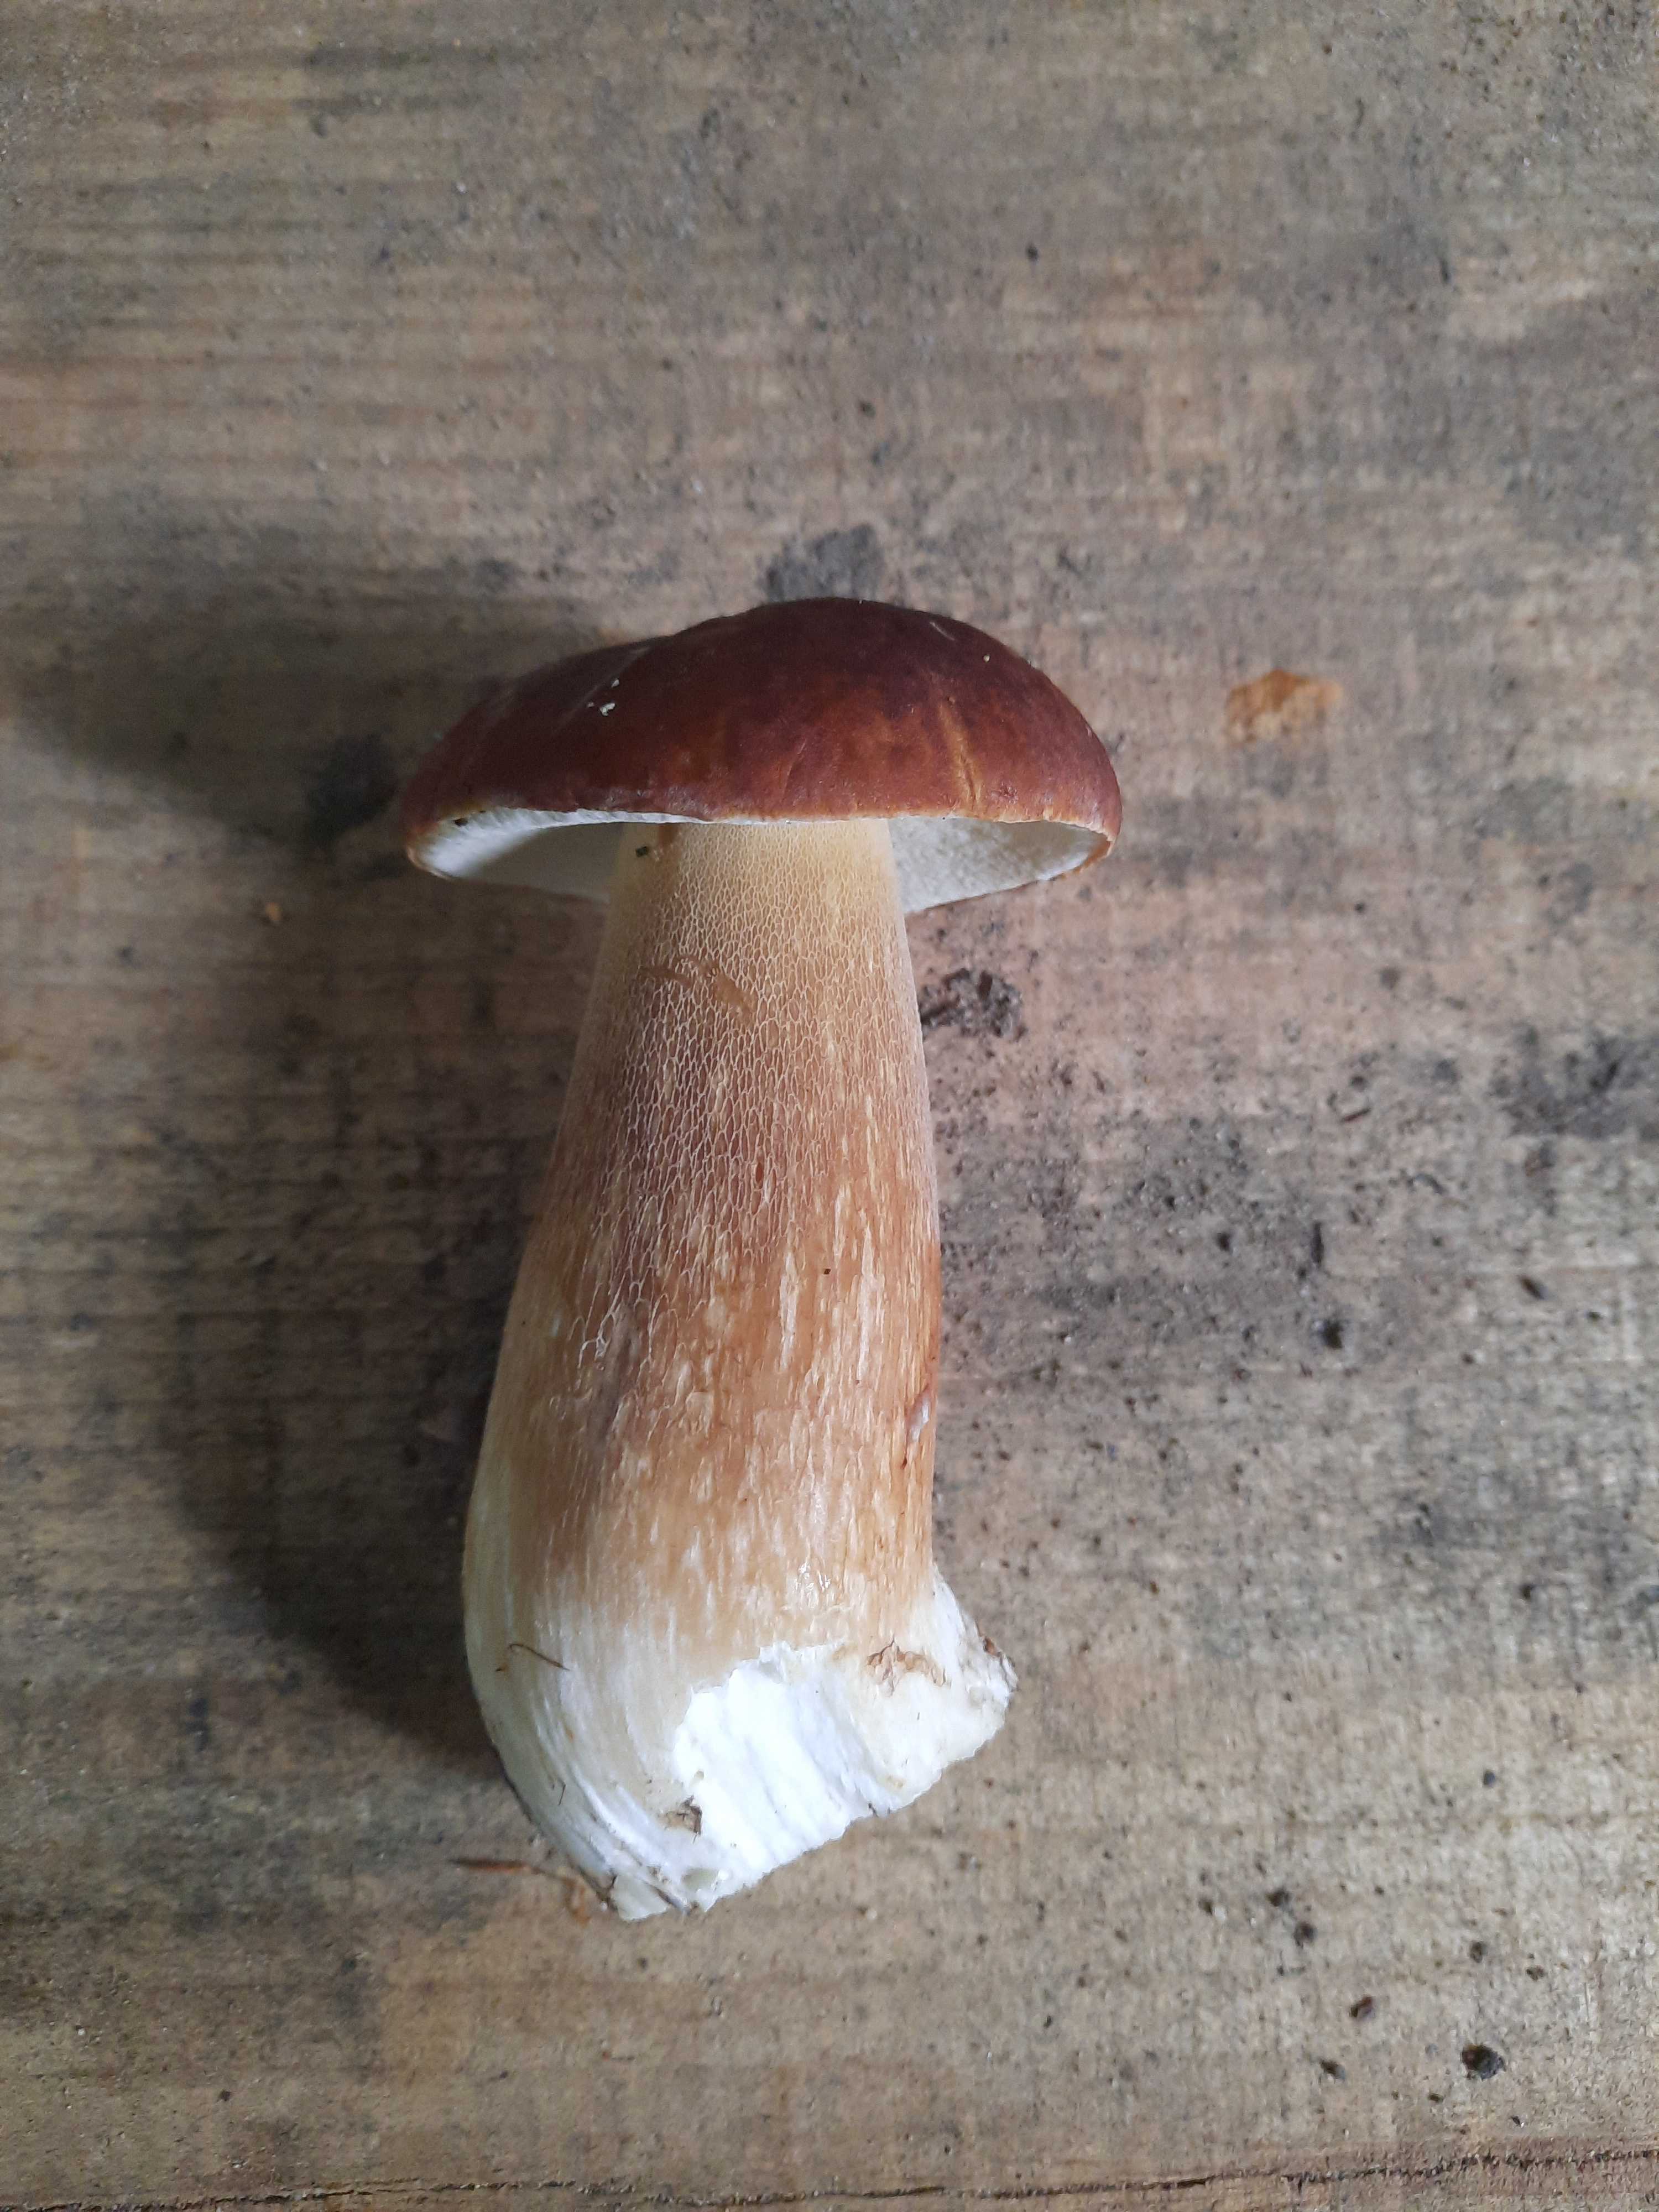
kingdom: Fungi
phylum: Basidiomycota
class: Agaricomycetes
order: Boletales
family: Boletaceae
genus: Boletus
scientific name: Boletus edulis
